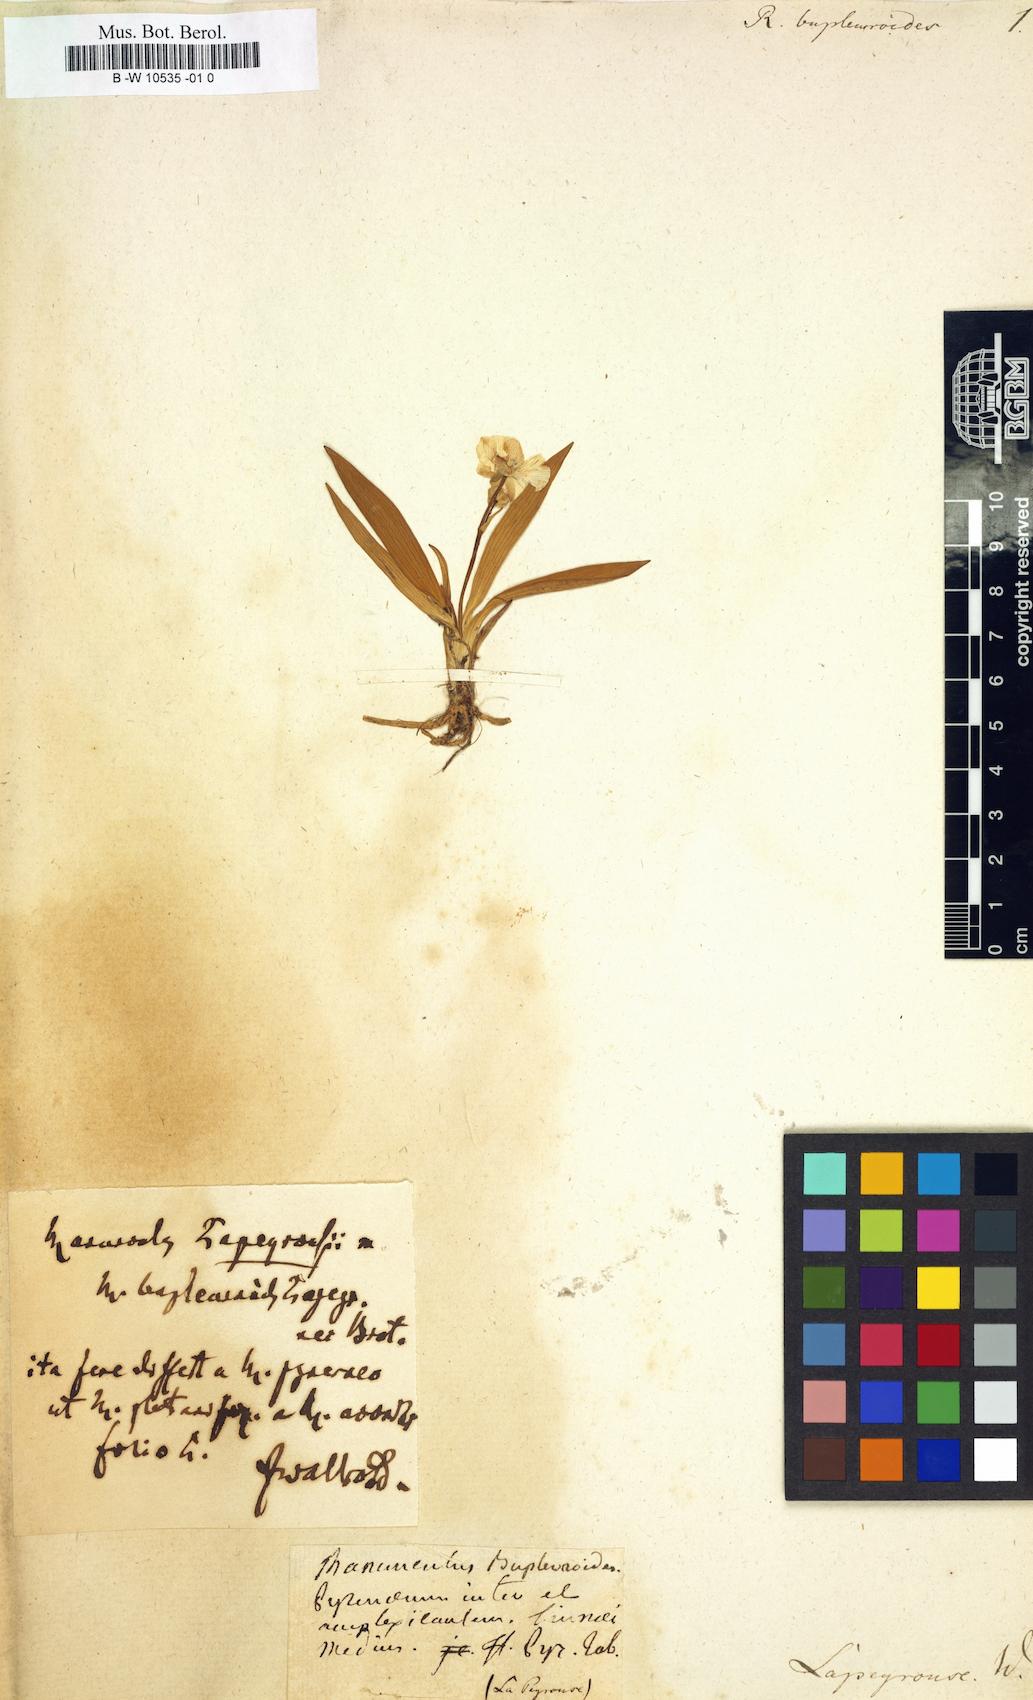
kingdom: Plantae
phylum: Tracheophyta
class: Magnoliopsida
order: Ranunculales
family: Ranunculaceae
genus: Ranunculus
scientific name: Ranunculus bupleuroides
